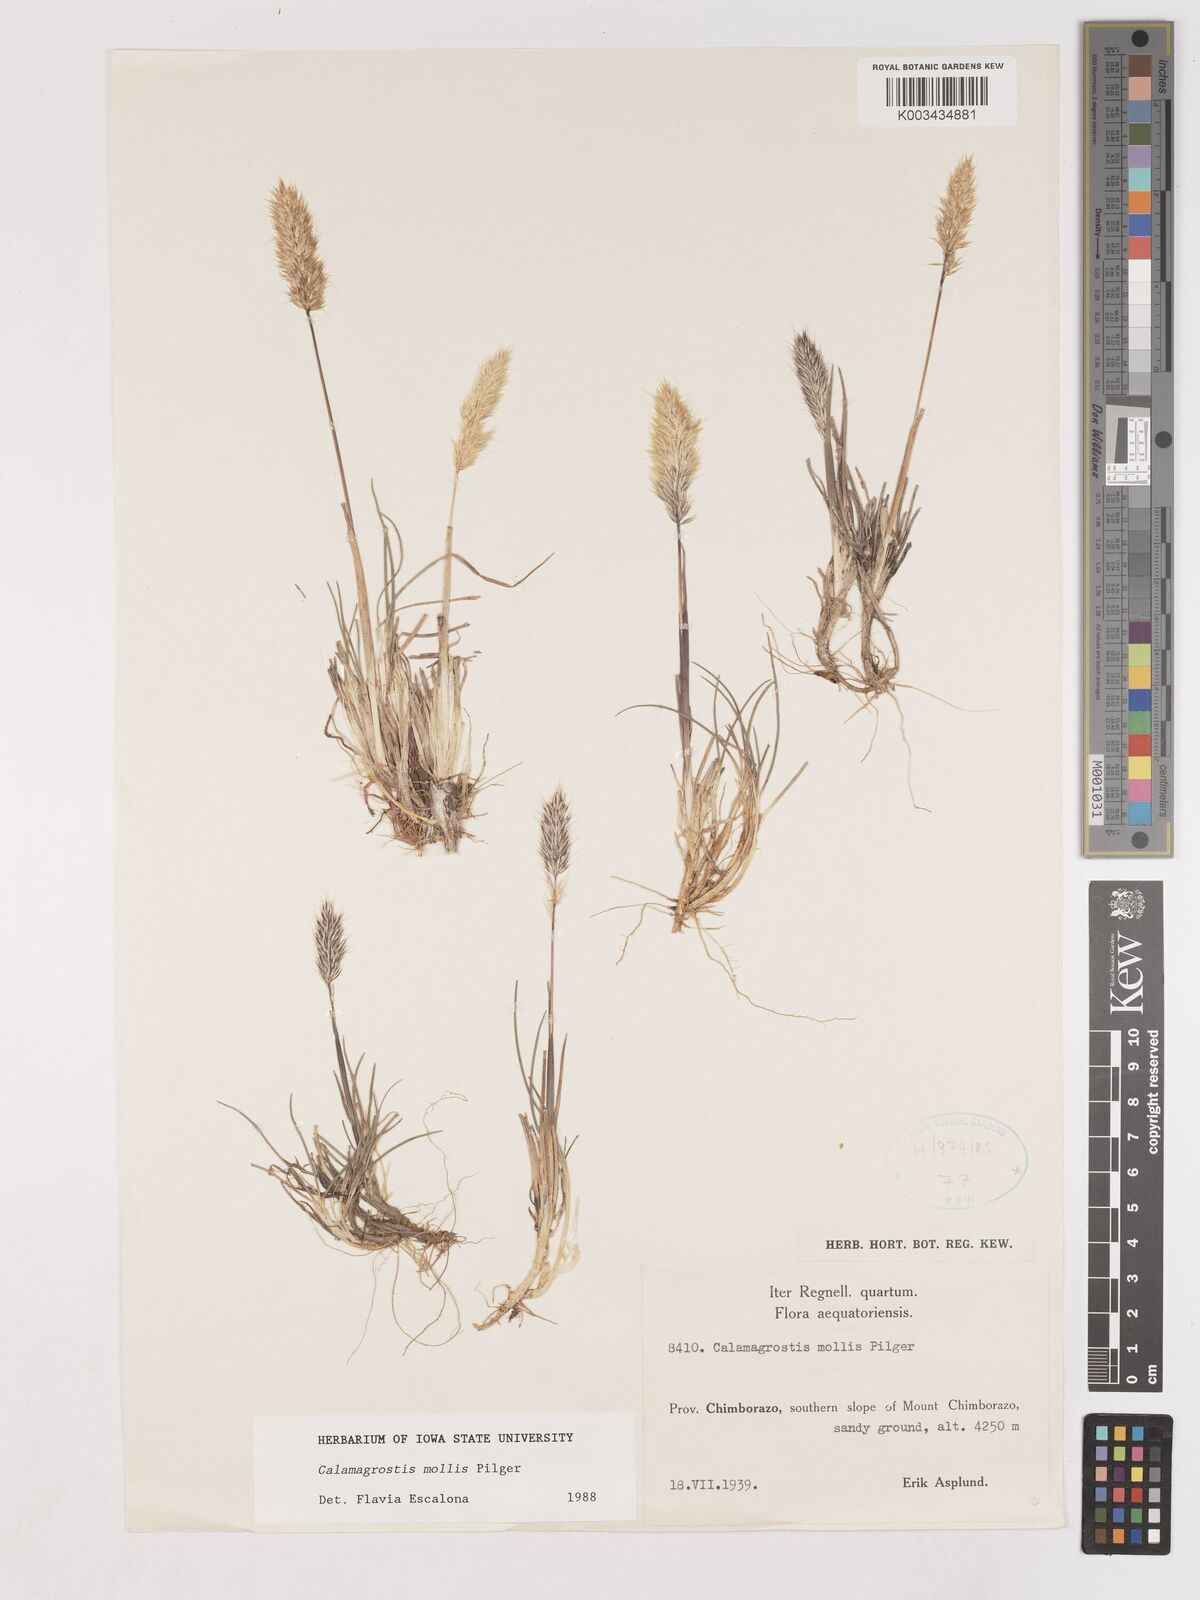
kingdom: Plantae
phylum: Tracheophyta
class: Liliopsida
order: Poales
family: Poaceae
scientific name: Poaceae
